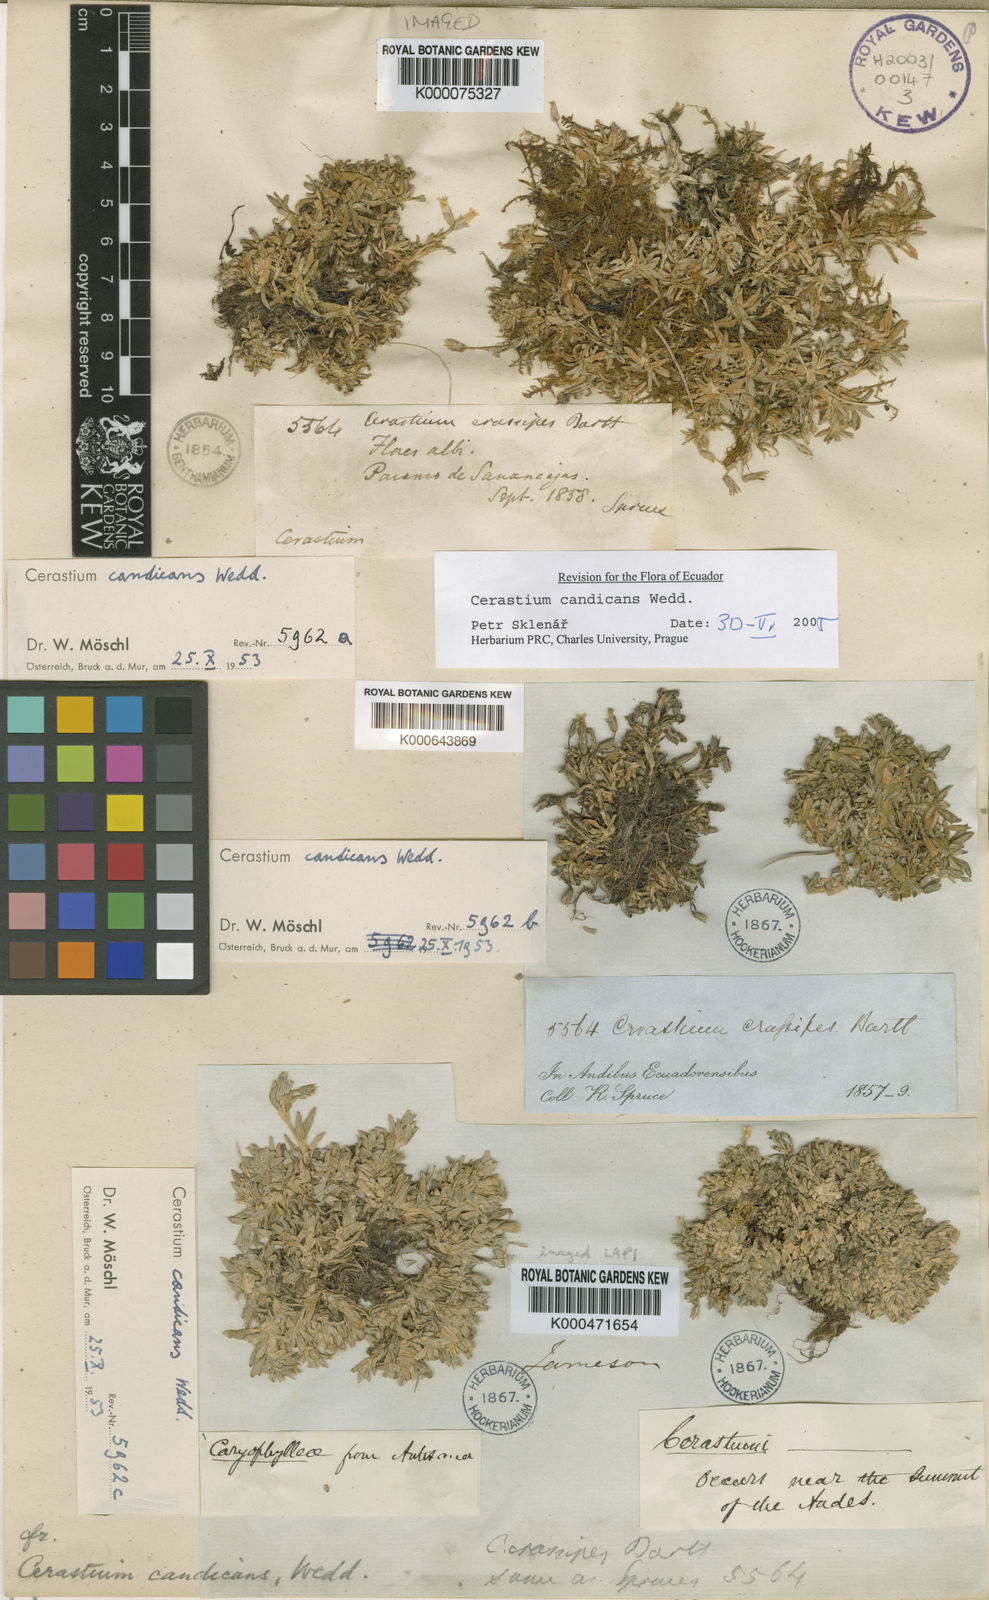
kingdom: Plantae
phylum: Tracheophyta
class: Magnoliopsida
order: Caryophyllales
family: Caryophyllaceae
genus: Cerastium
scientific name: Cerastium candicans
